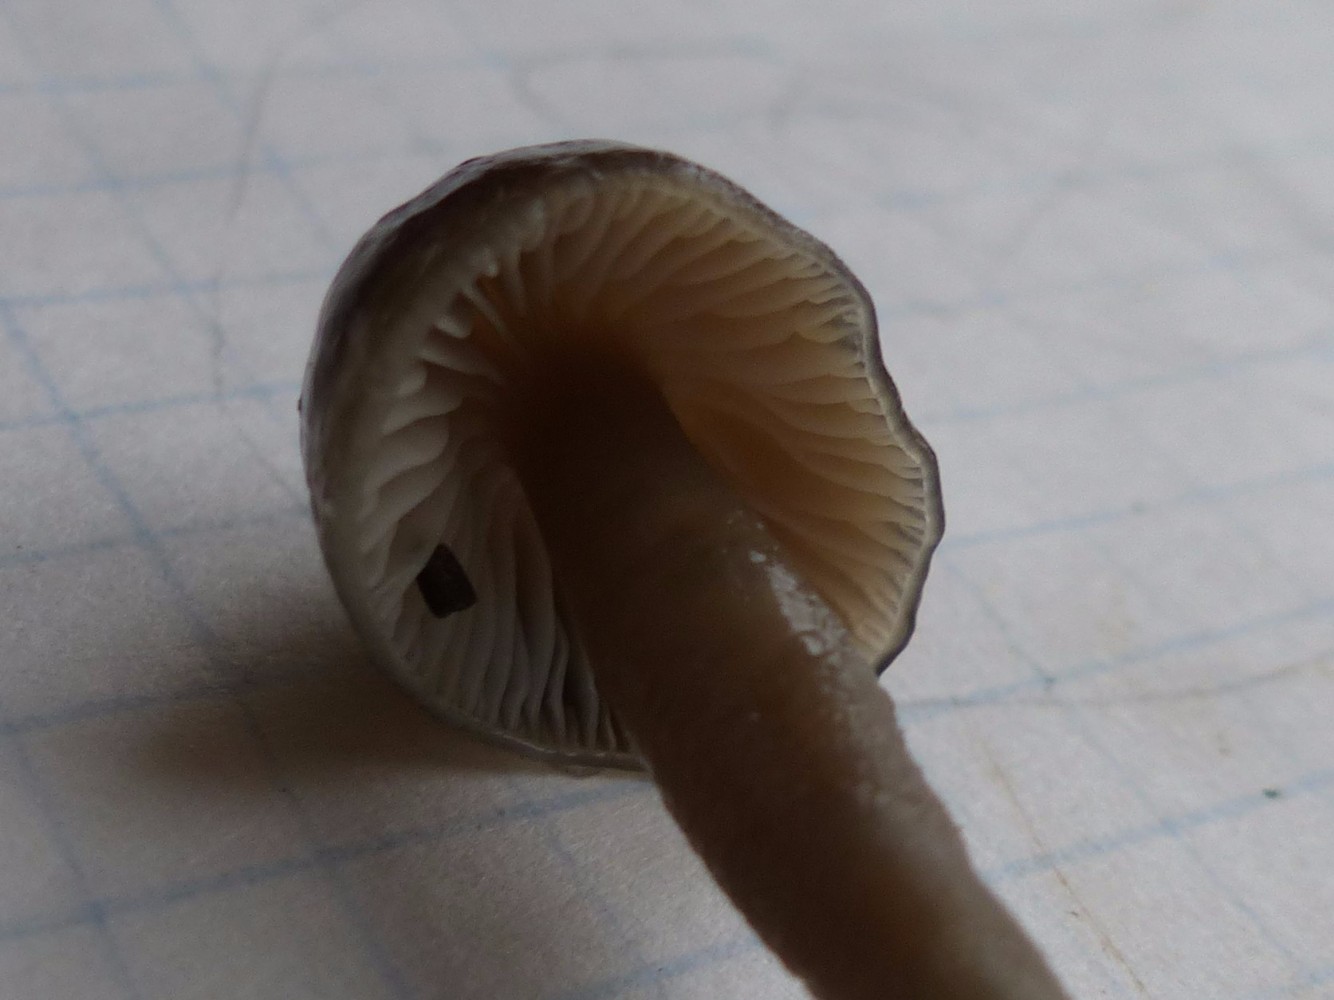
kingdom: Fungi
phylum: Basidiomycota
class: Agaricomycetes
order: Agaricales
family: Hygrophoraceae
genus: Gliophorus
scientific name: Gliophorus irrigatus
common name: slimet vokshat
